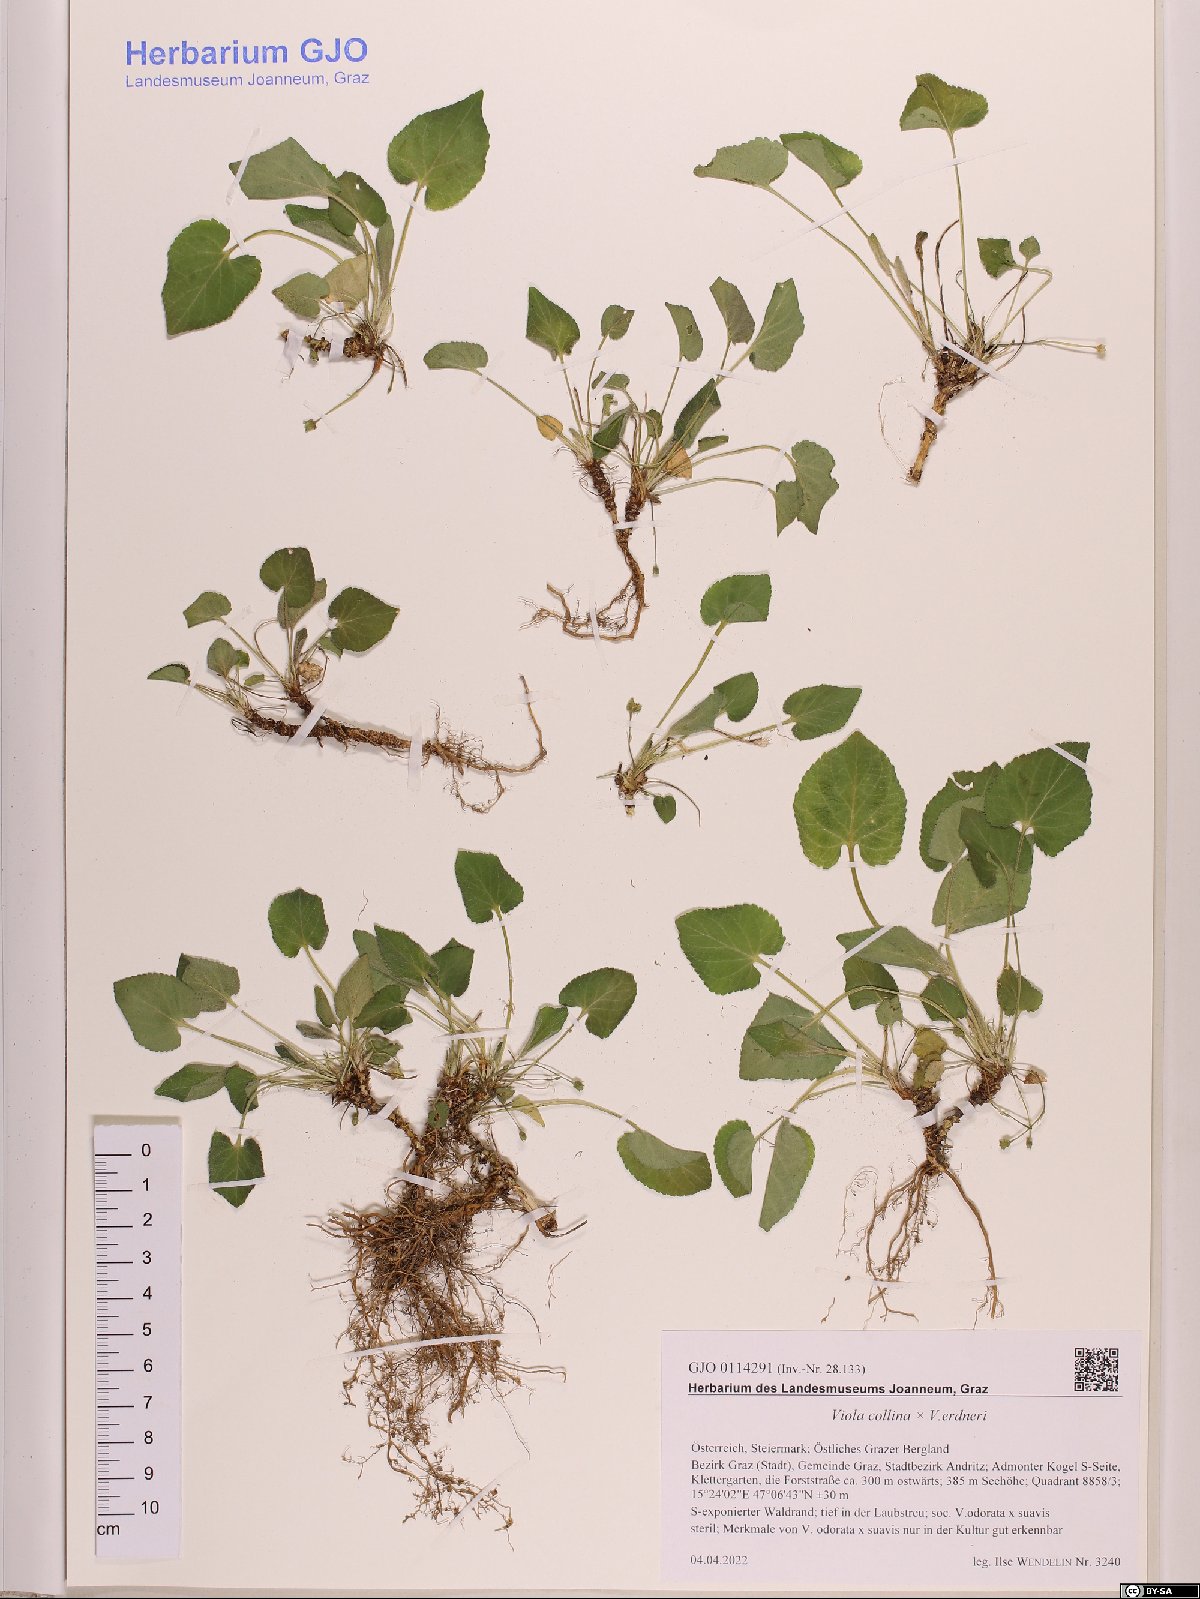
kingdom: Plantae
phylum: Tracheophyta
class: Magnoliopsida
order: Malpighiales
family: Violaceae
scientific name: Violaceae
